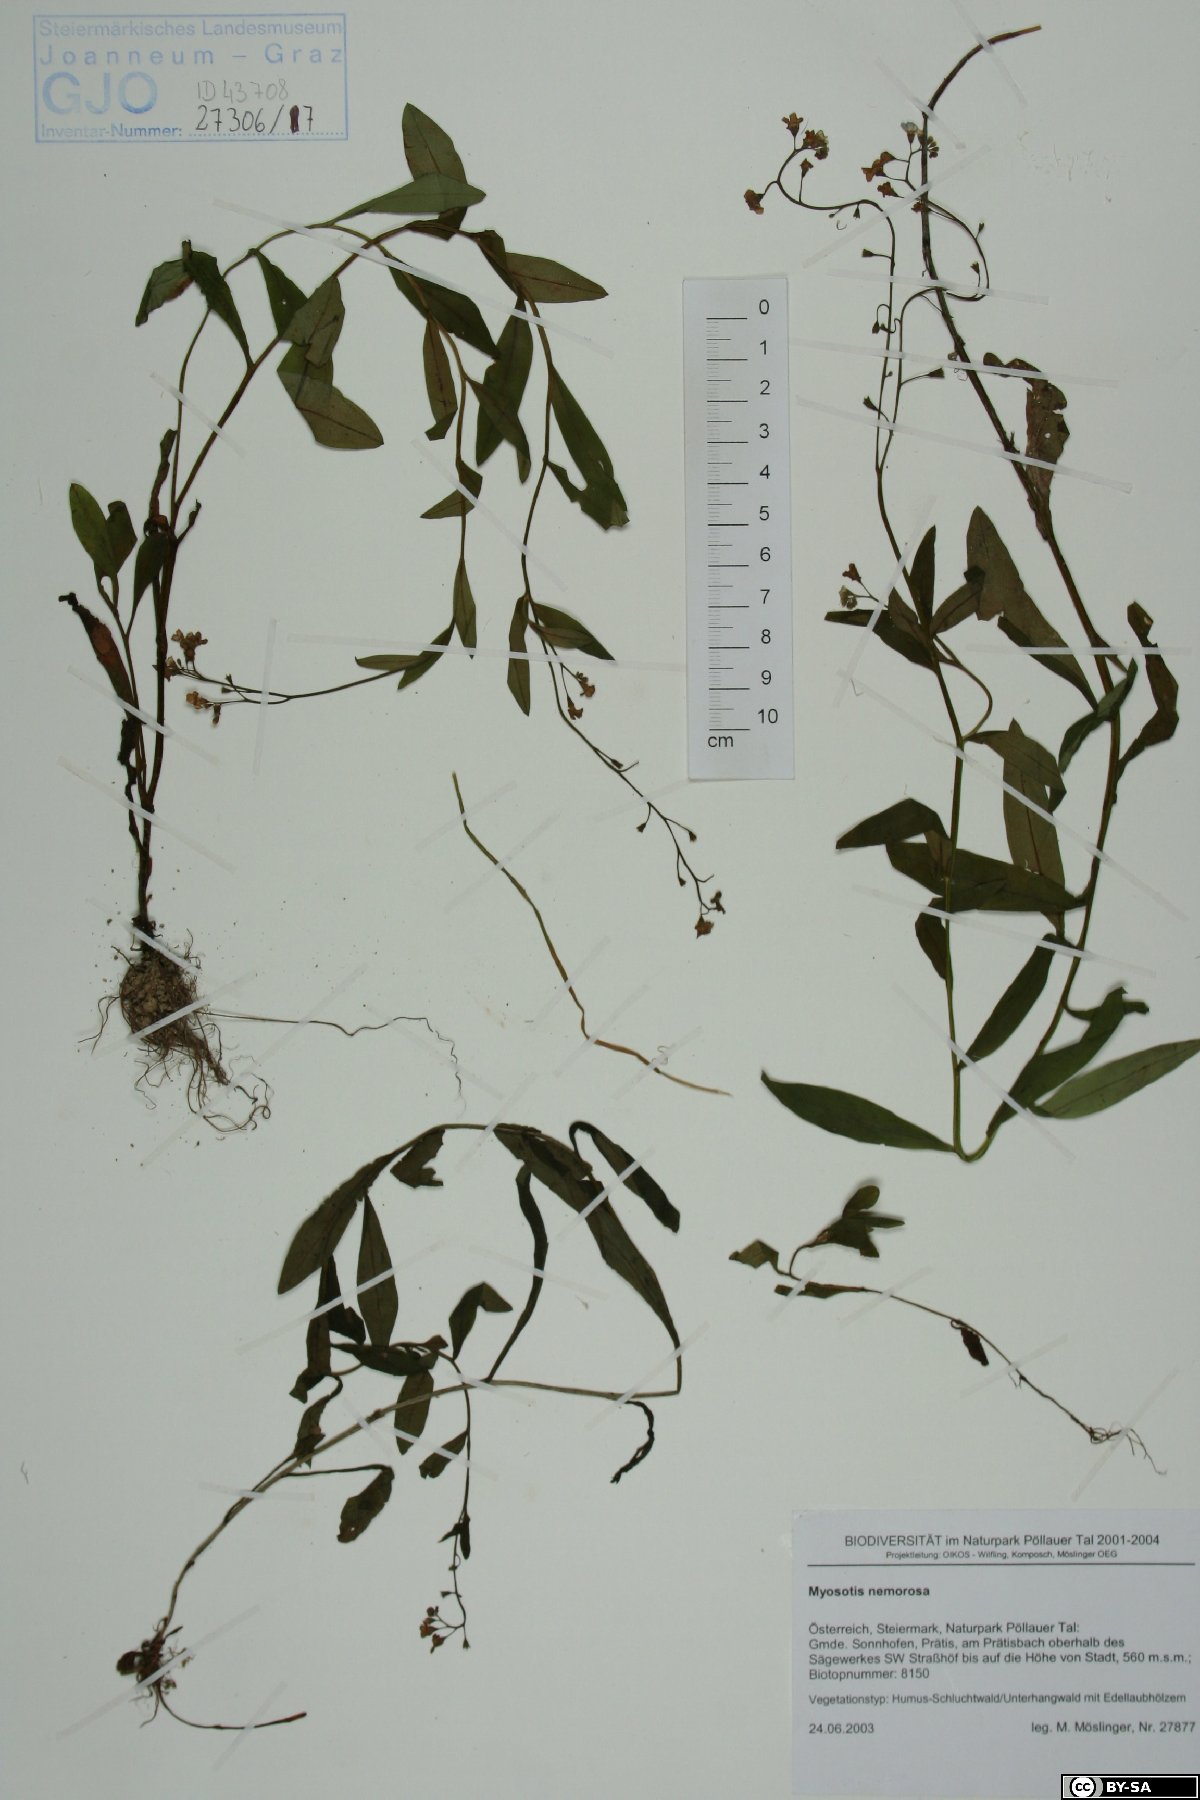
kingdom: Plantae
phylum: Tracheophyta
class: Magnoliopsida
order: Boraginales
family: Boraginaceae
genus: Myosotis
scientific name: Myosotis nemorosa
